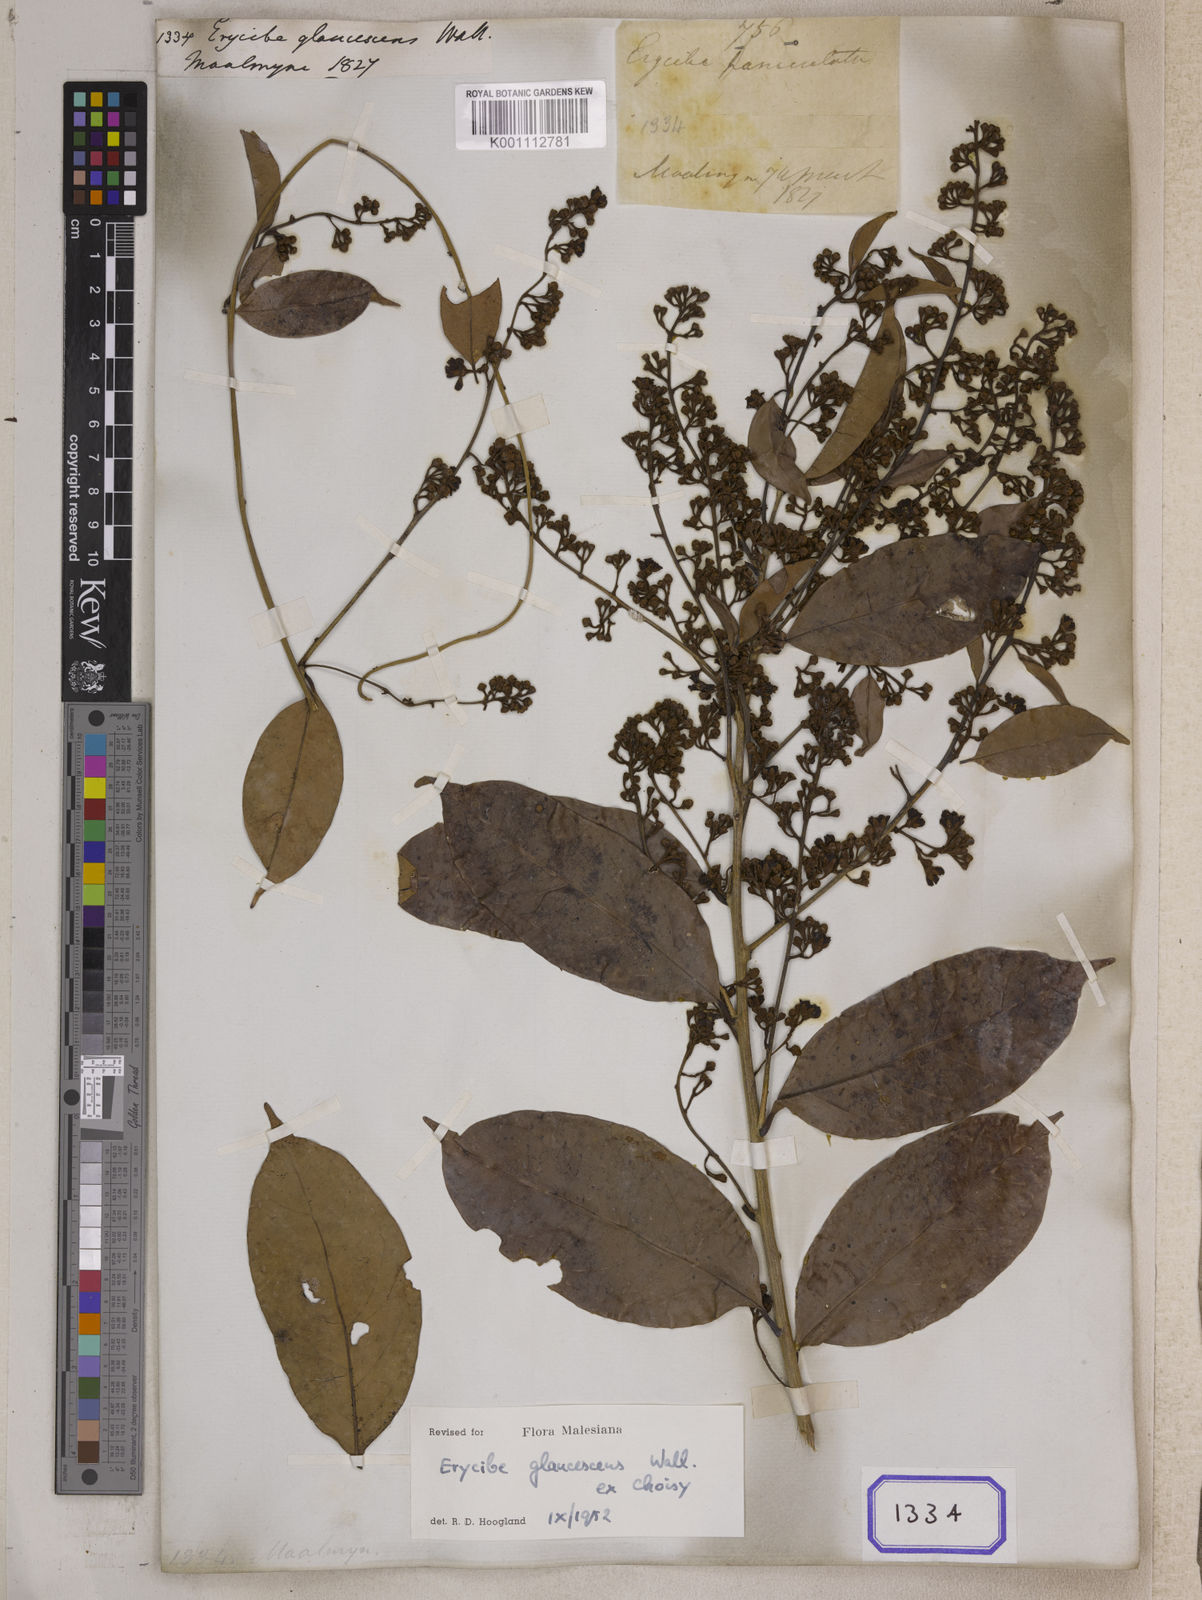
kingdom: Plantae
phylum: Tracheophyta
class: Magnoliopsida
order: Solanales
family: Convolvulaceae
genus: Erycibe
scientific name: Erycibe
